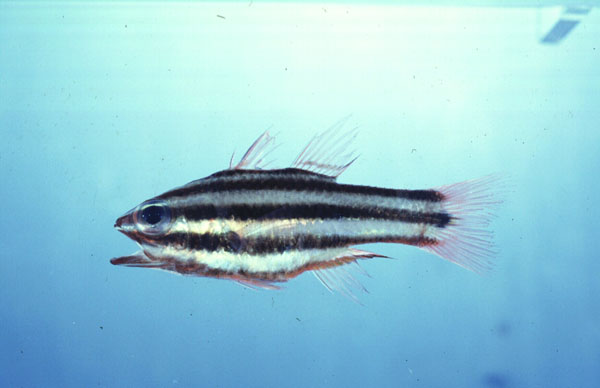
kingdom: Animalia
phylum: Chordata
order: Perciformes
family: Apogonidae
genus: Ostorhinchus
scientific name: Ostorhinchus angustatus
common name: Narrow-striped cardinalfish
